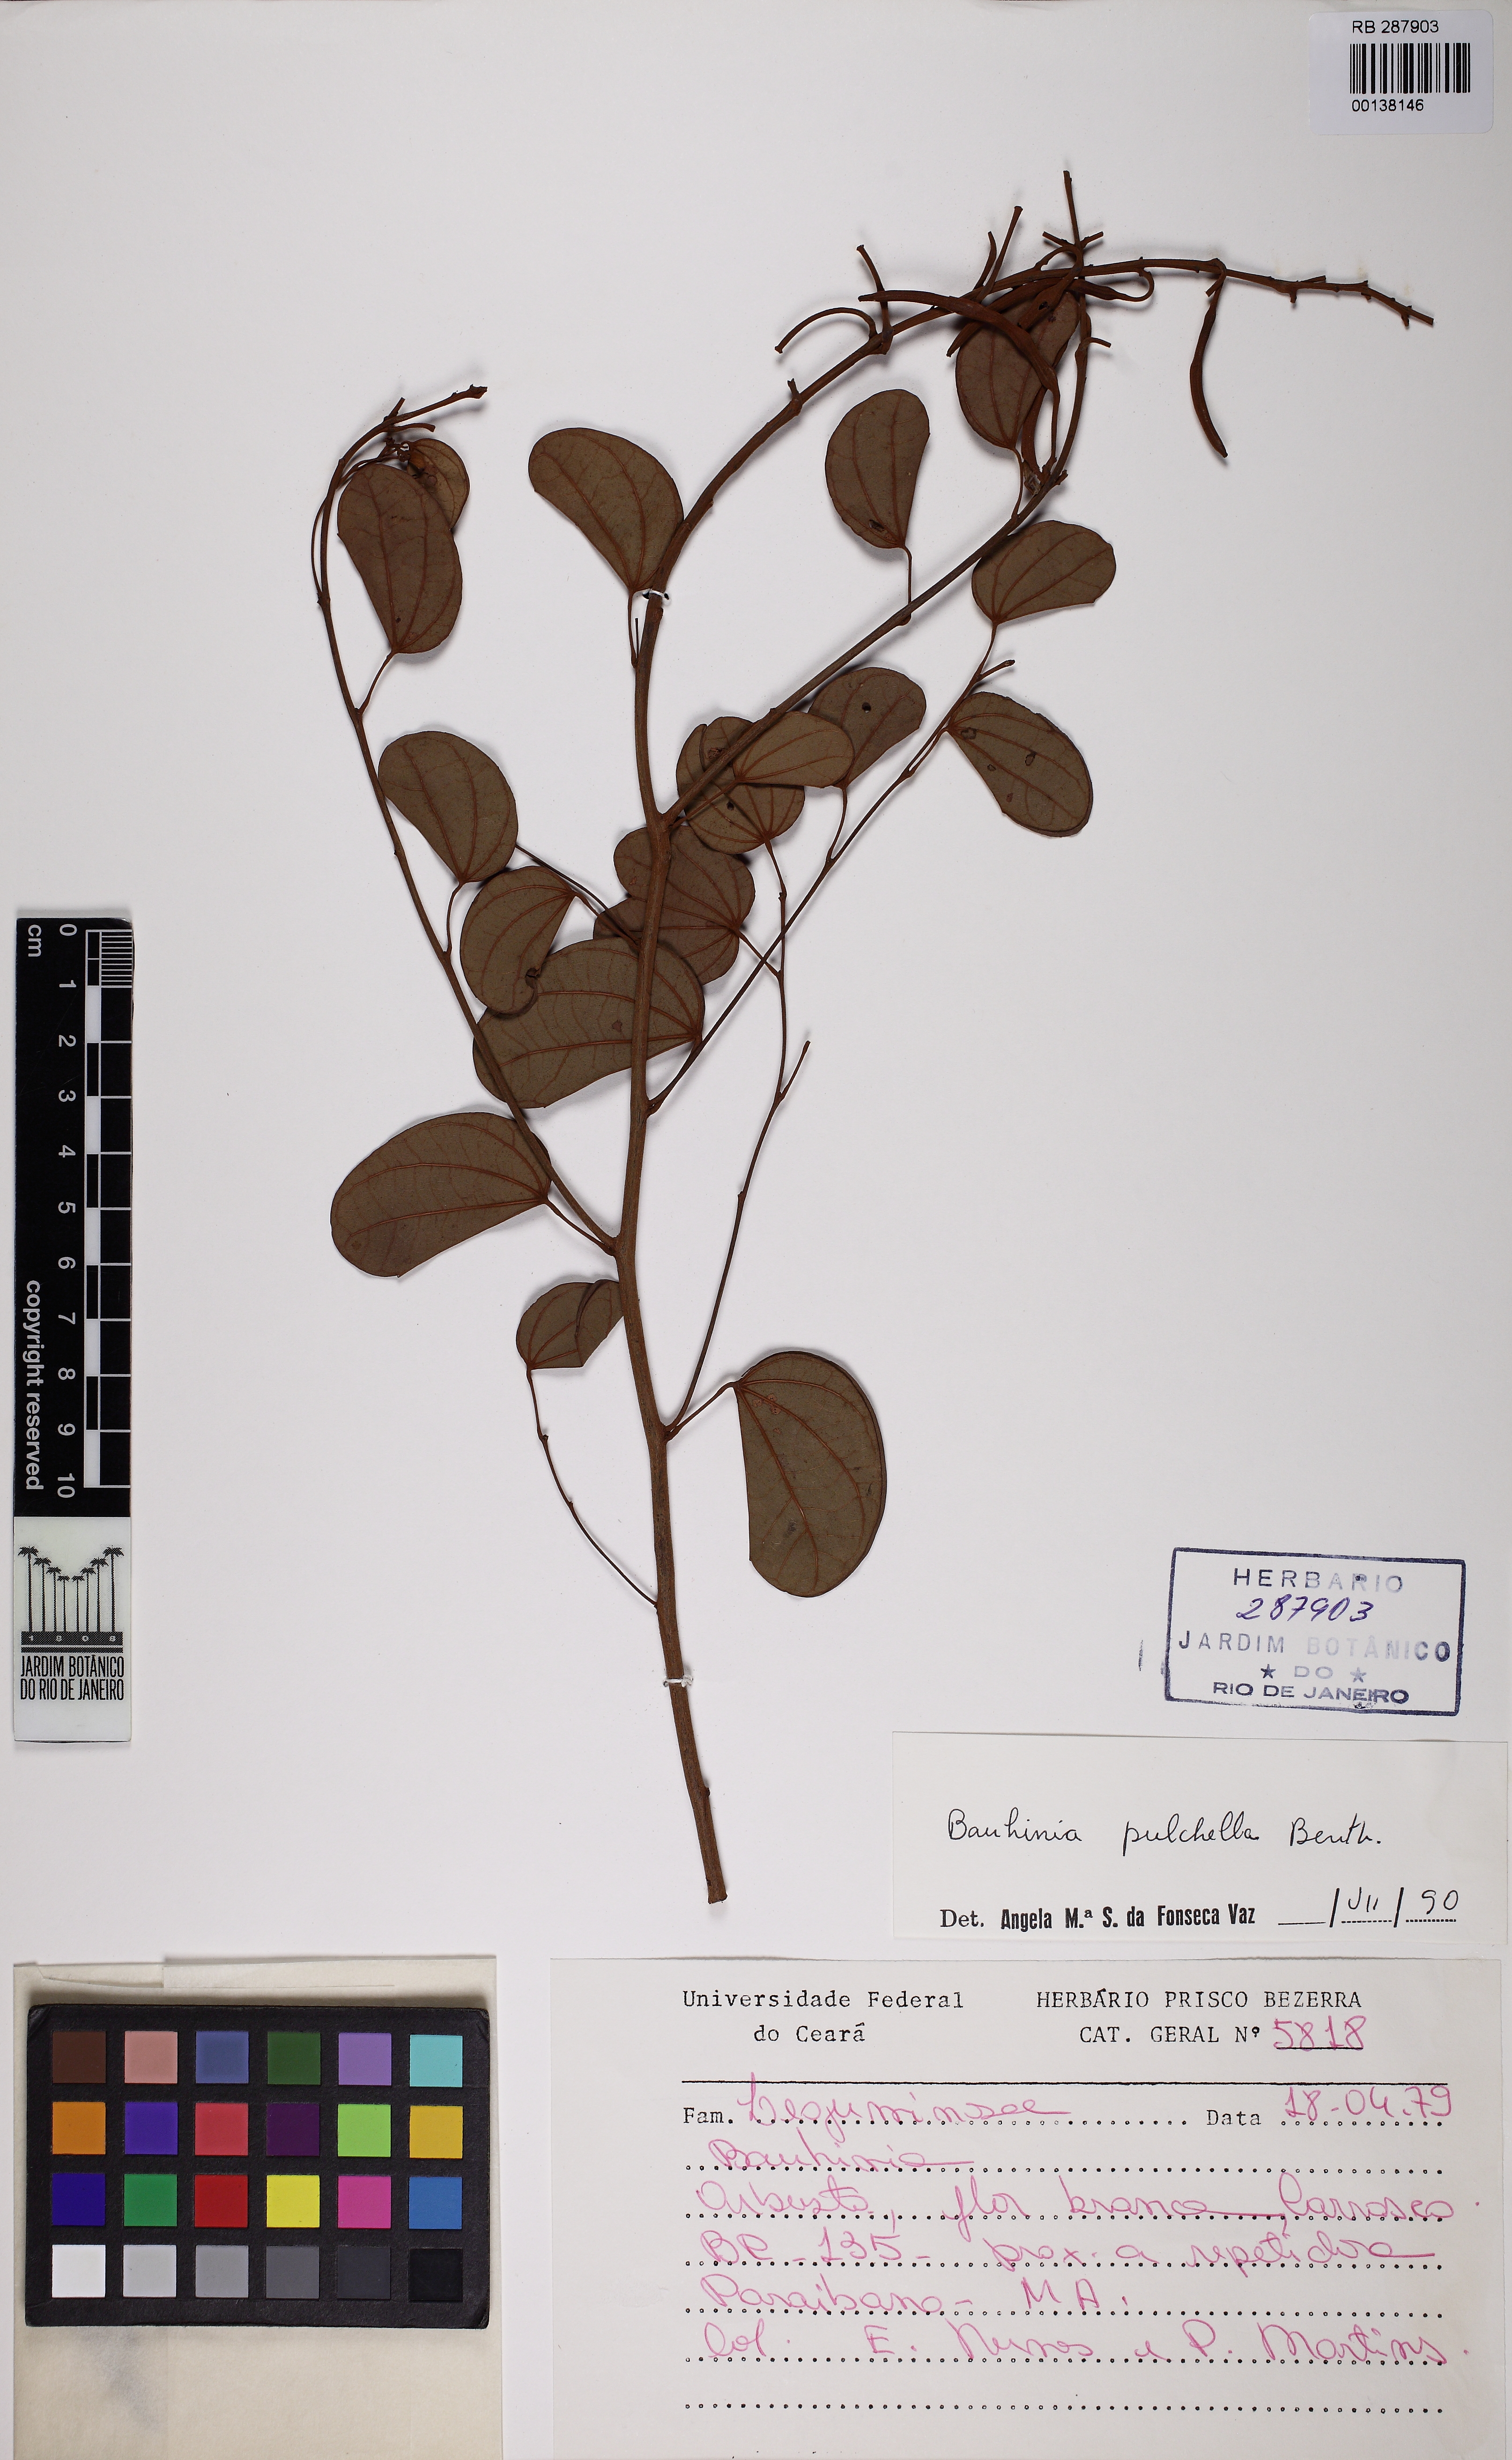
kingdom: Plantae
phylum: Tracheophyta
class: Magnoliopsida
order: Fabales
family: Fabaceae
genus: Bauhinia
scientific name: Bauhinia pulchella
